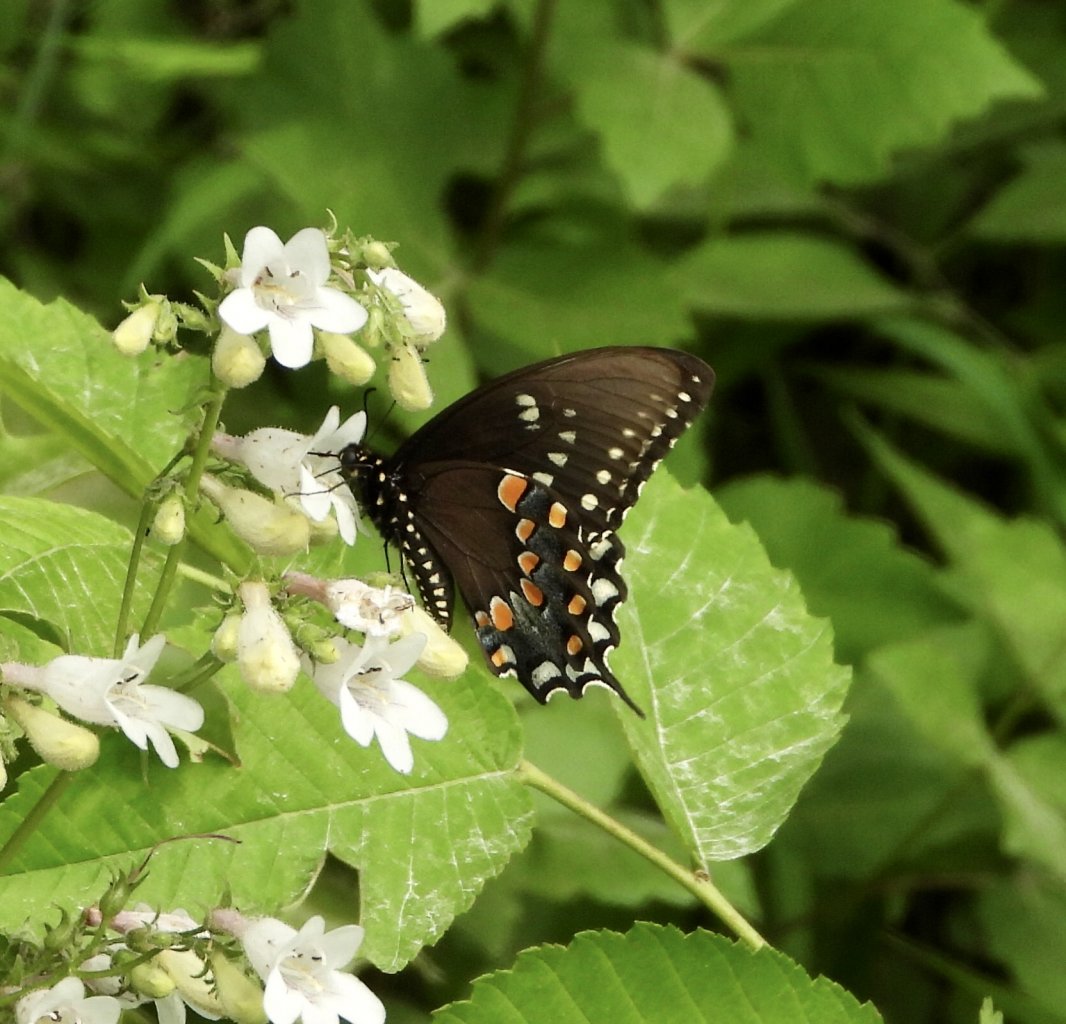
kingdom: Animalia
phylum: Arthropoda
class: Insecta
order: Lepidoptera
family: Papilionidae
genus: Pterourus
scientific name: Pterourus troilus
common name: Spicebush Swallowtail
